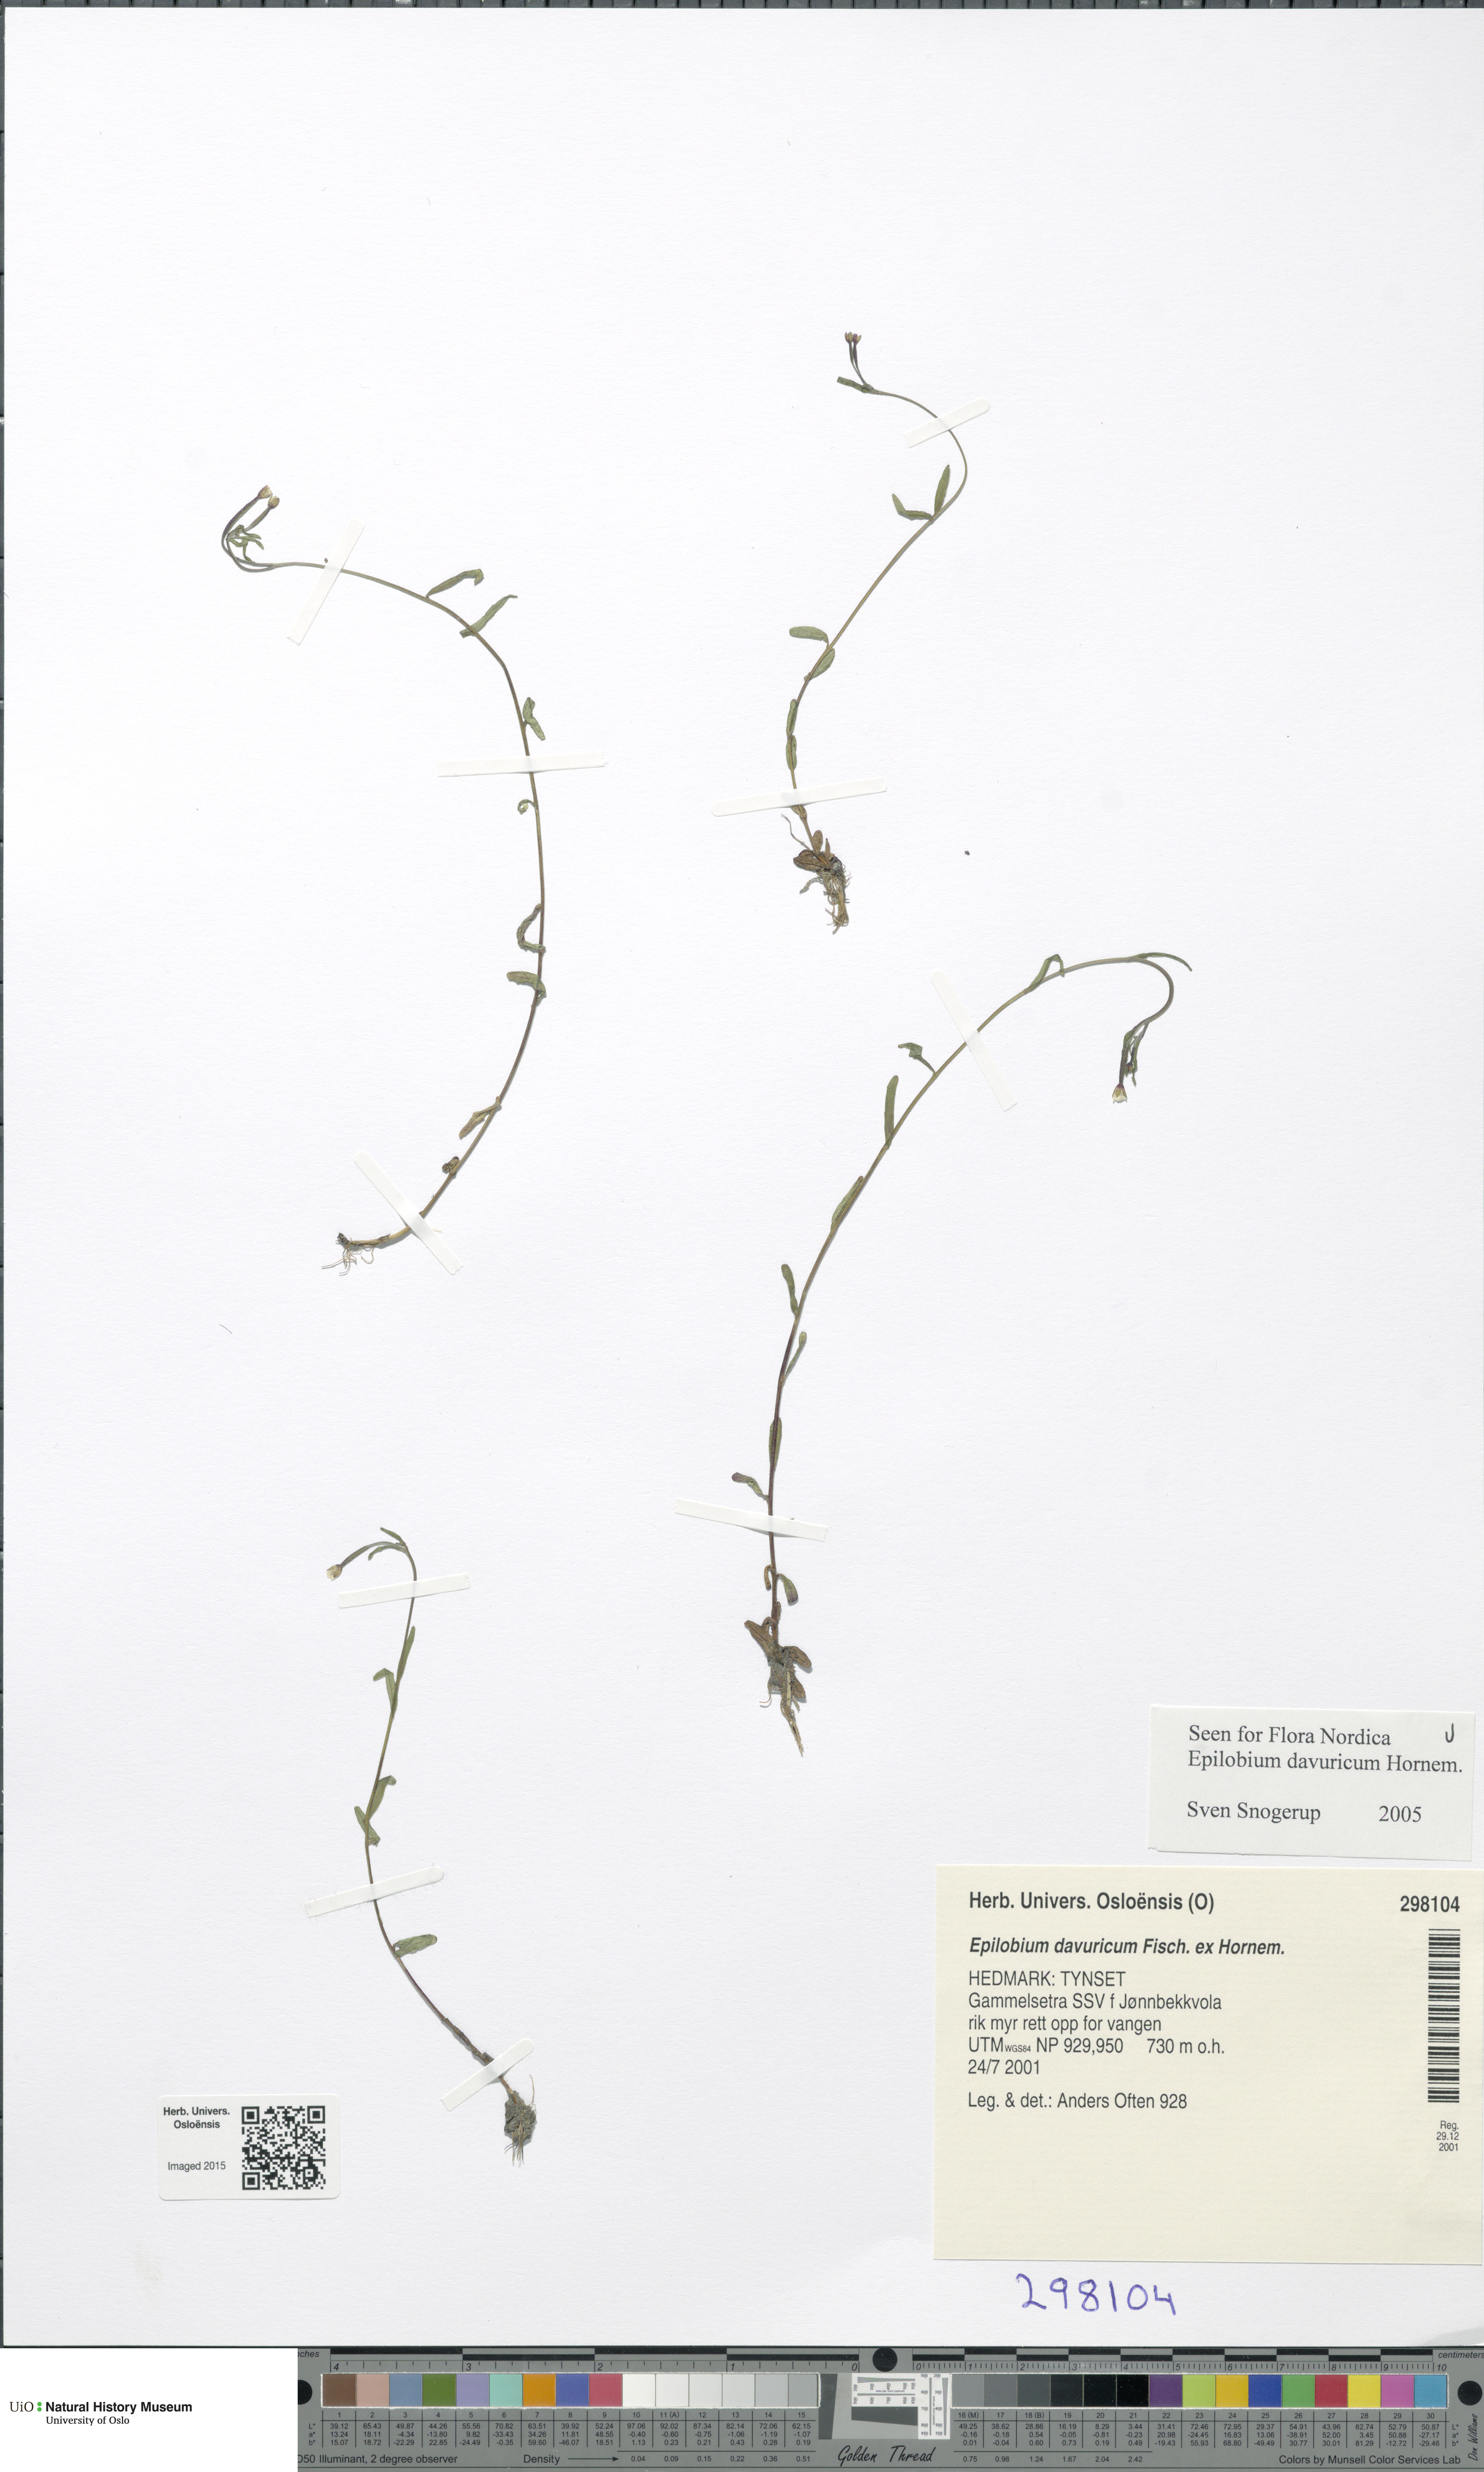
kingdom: Plantae
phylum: Tracheophyta
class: Magnoliopsida
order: Myrtales
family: Onagraceae
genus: Epilobium
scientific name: Epilobium davuricum
